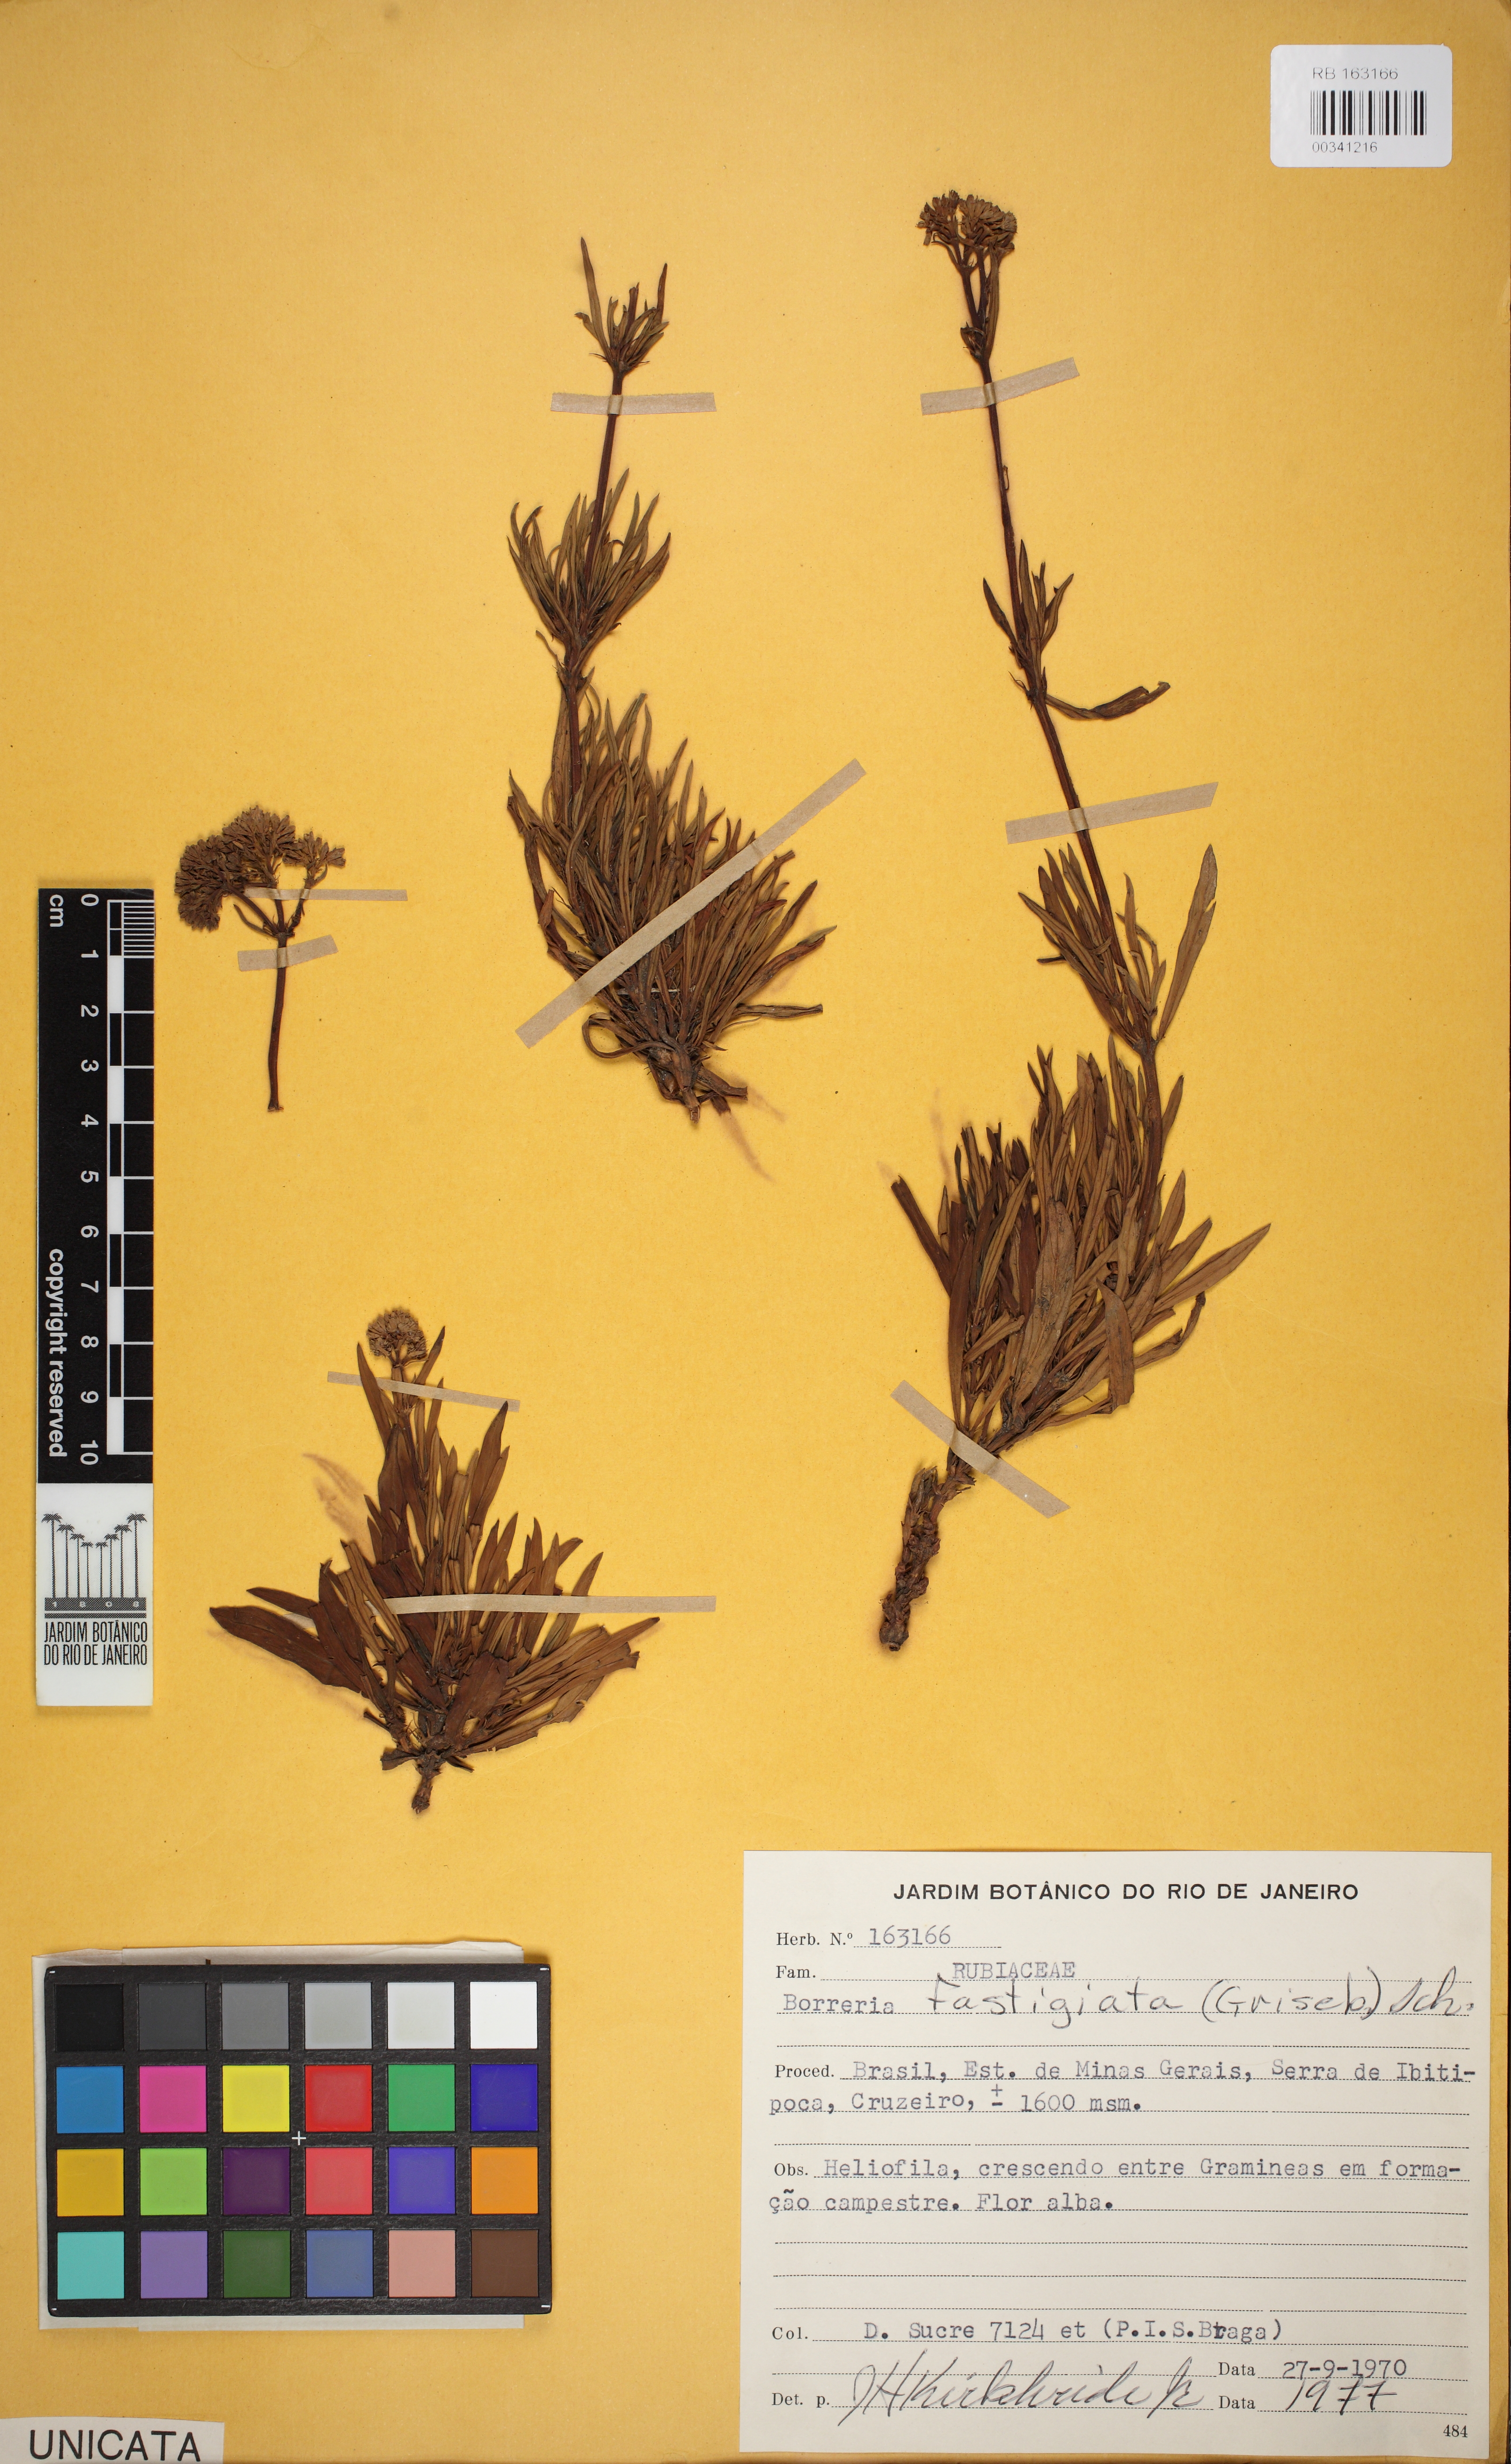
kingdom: Plantae
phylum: Tracheophyta
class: Magnoliopsida
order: Gentianales
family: Rubiaceae
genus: Galianthe
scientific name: Galianthe angustifolia
